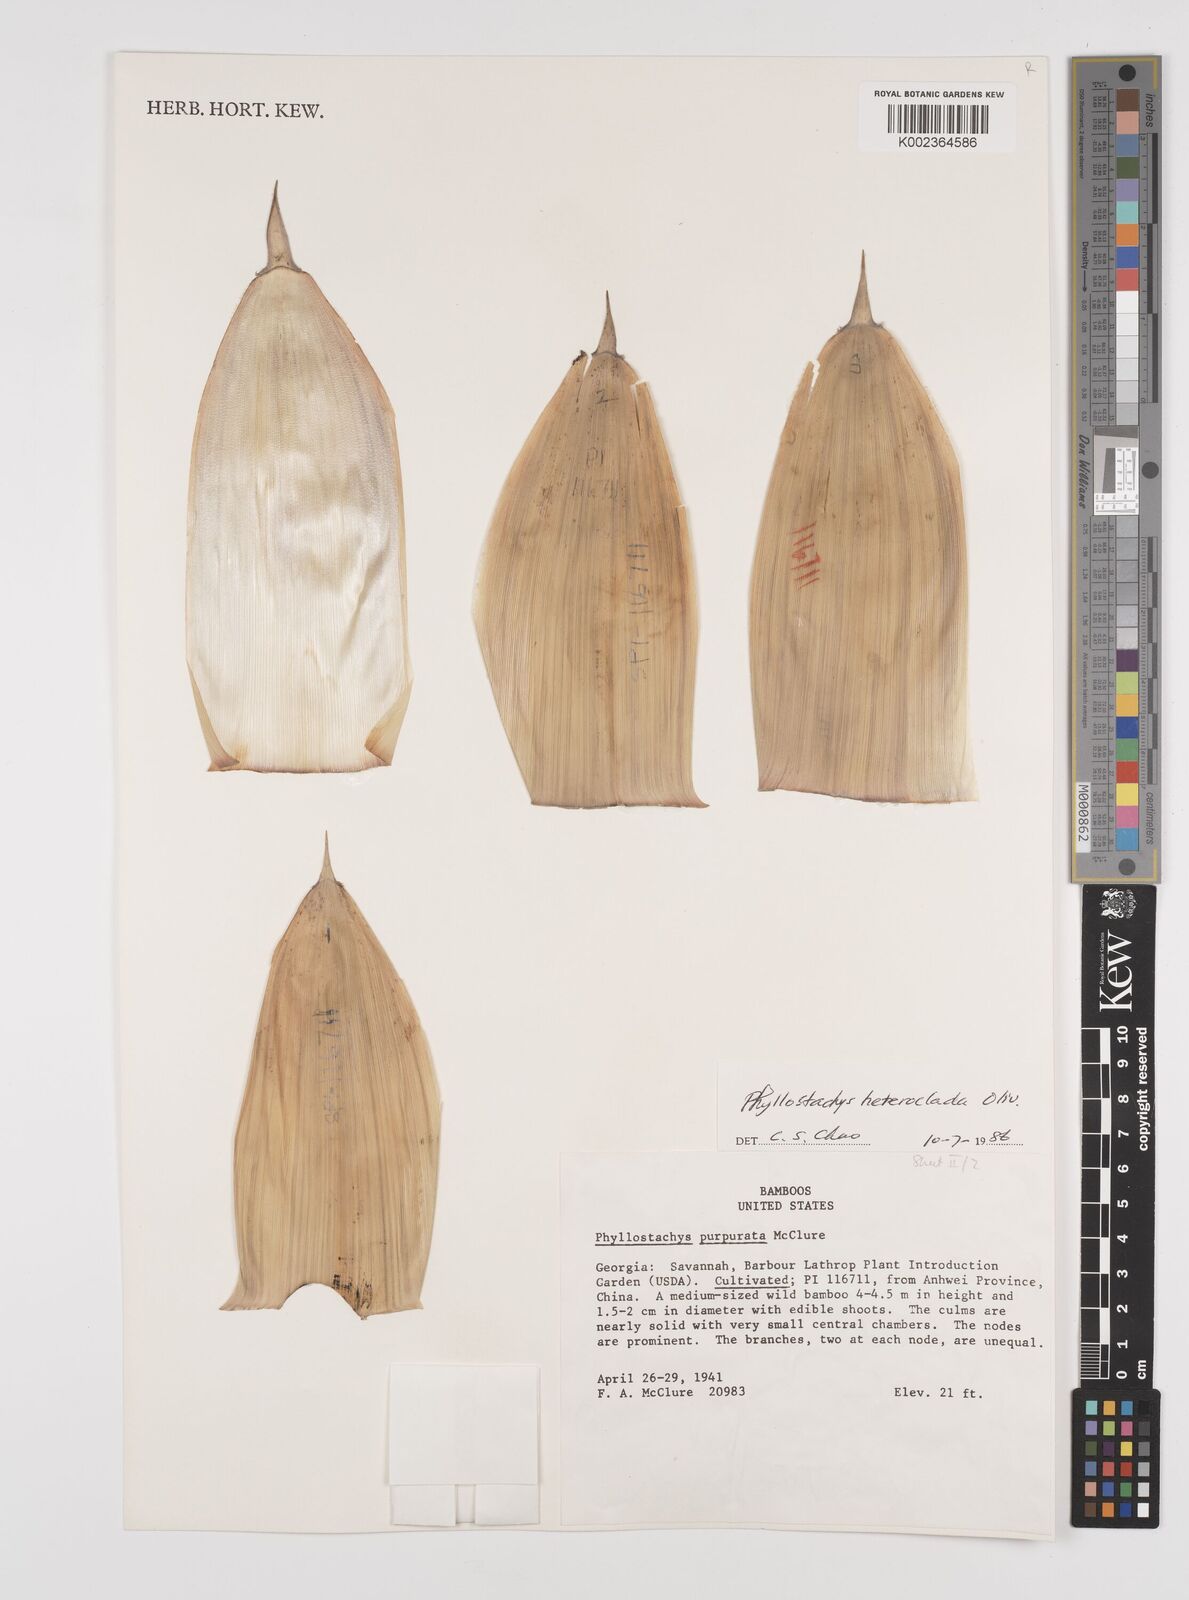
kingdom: Plantae
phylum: Tracheophyta
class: Liliopsida
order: Poales
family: Poaceae
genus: Phyllostachys
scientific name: Phyllostachys heteroclada
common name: Fishscale bamboo
